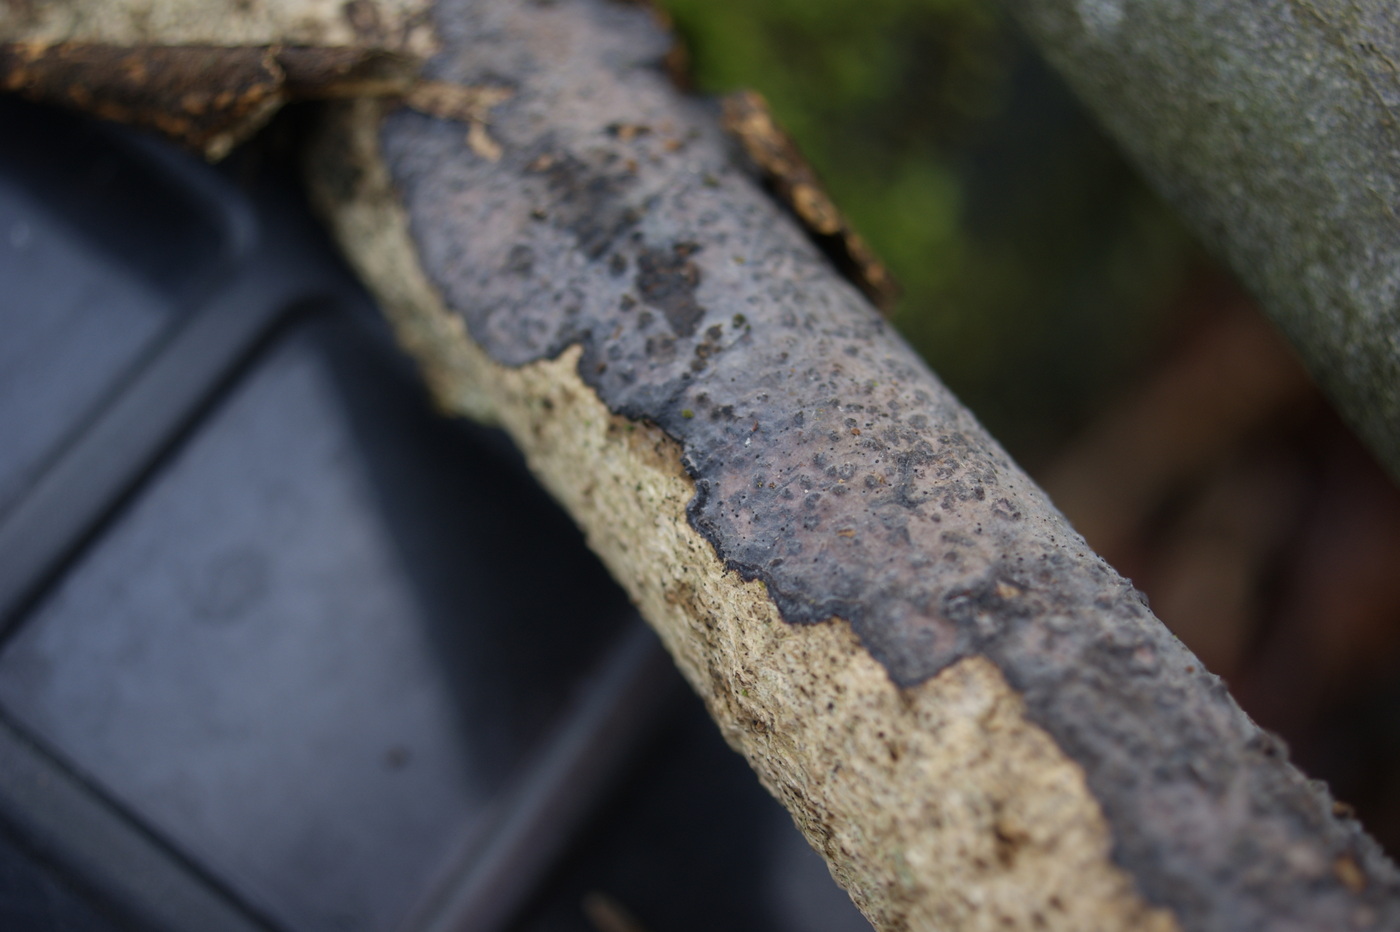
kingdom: Fungi
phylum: Basidiomycota
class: Agaricomycetes
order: Russulales
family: Peniophoraceae
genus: Peniophora
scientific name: Peniophora limitata
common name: mørkrandet voksskind
